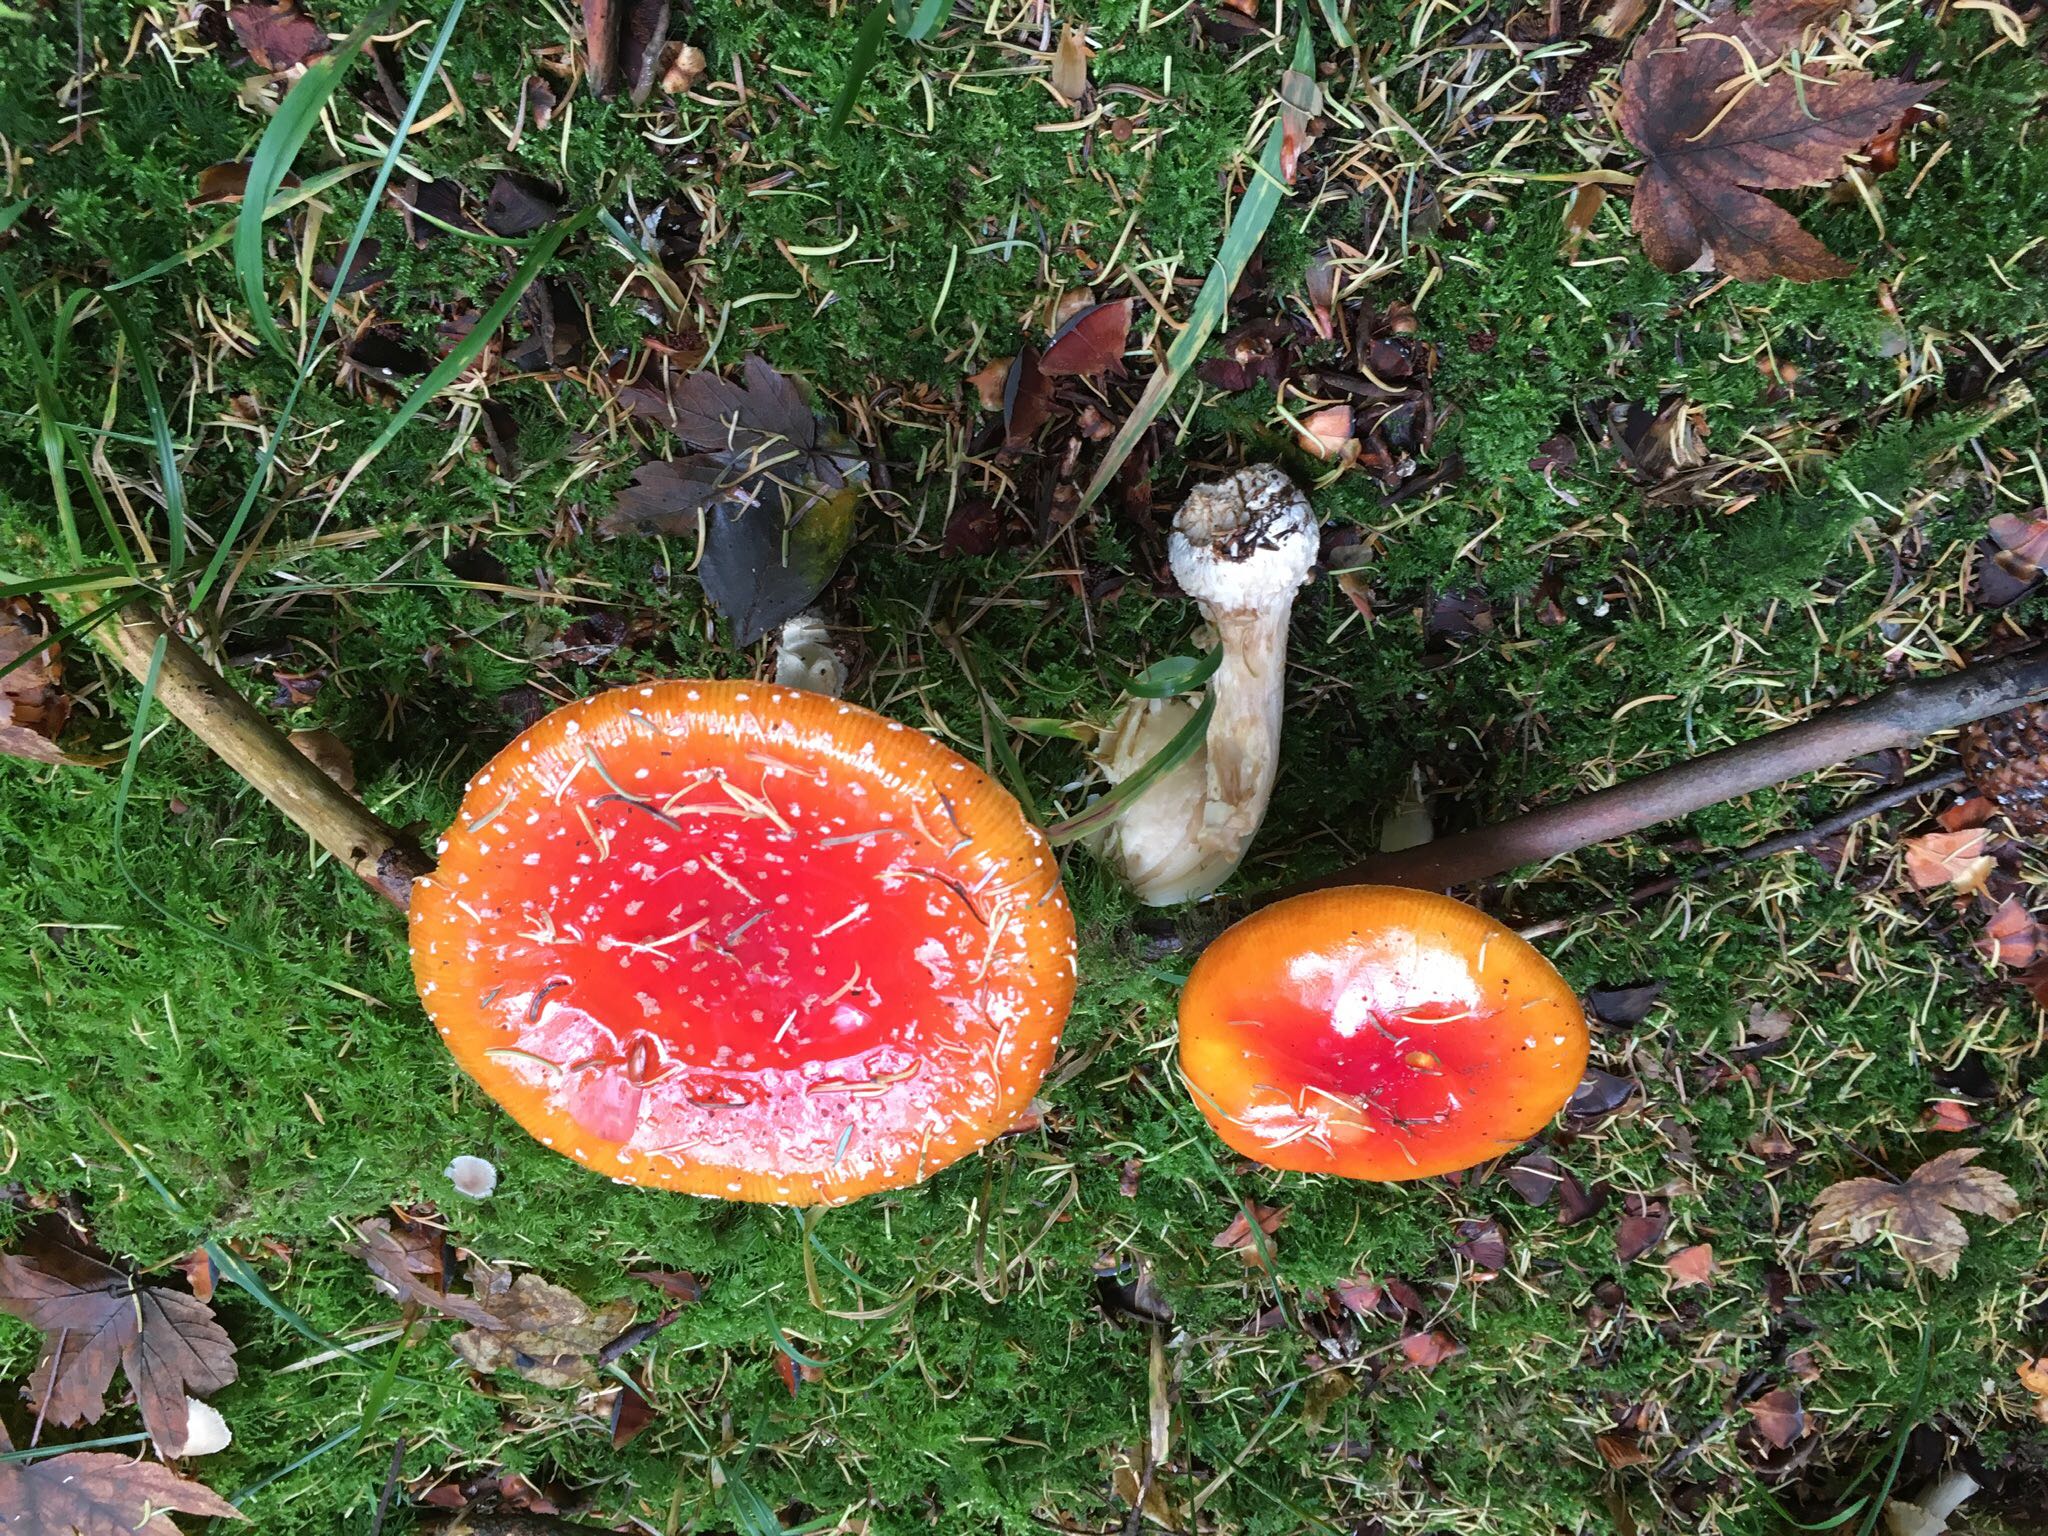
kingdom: Fungi
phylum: Basidiomycota
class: Agaricomycetes
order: Agaricales
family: Amanitaceae
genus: Amanita
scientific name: Amanita muscaria
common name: rød fluesvamp
